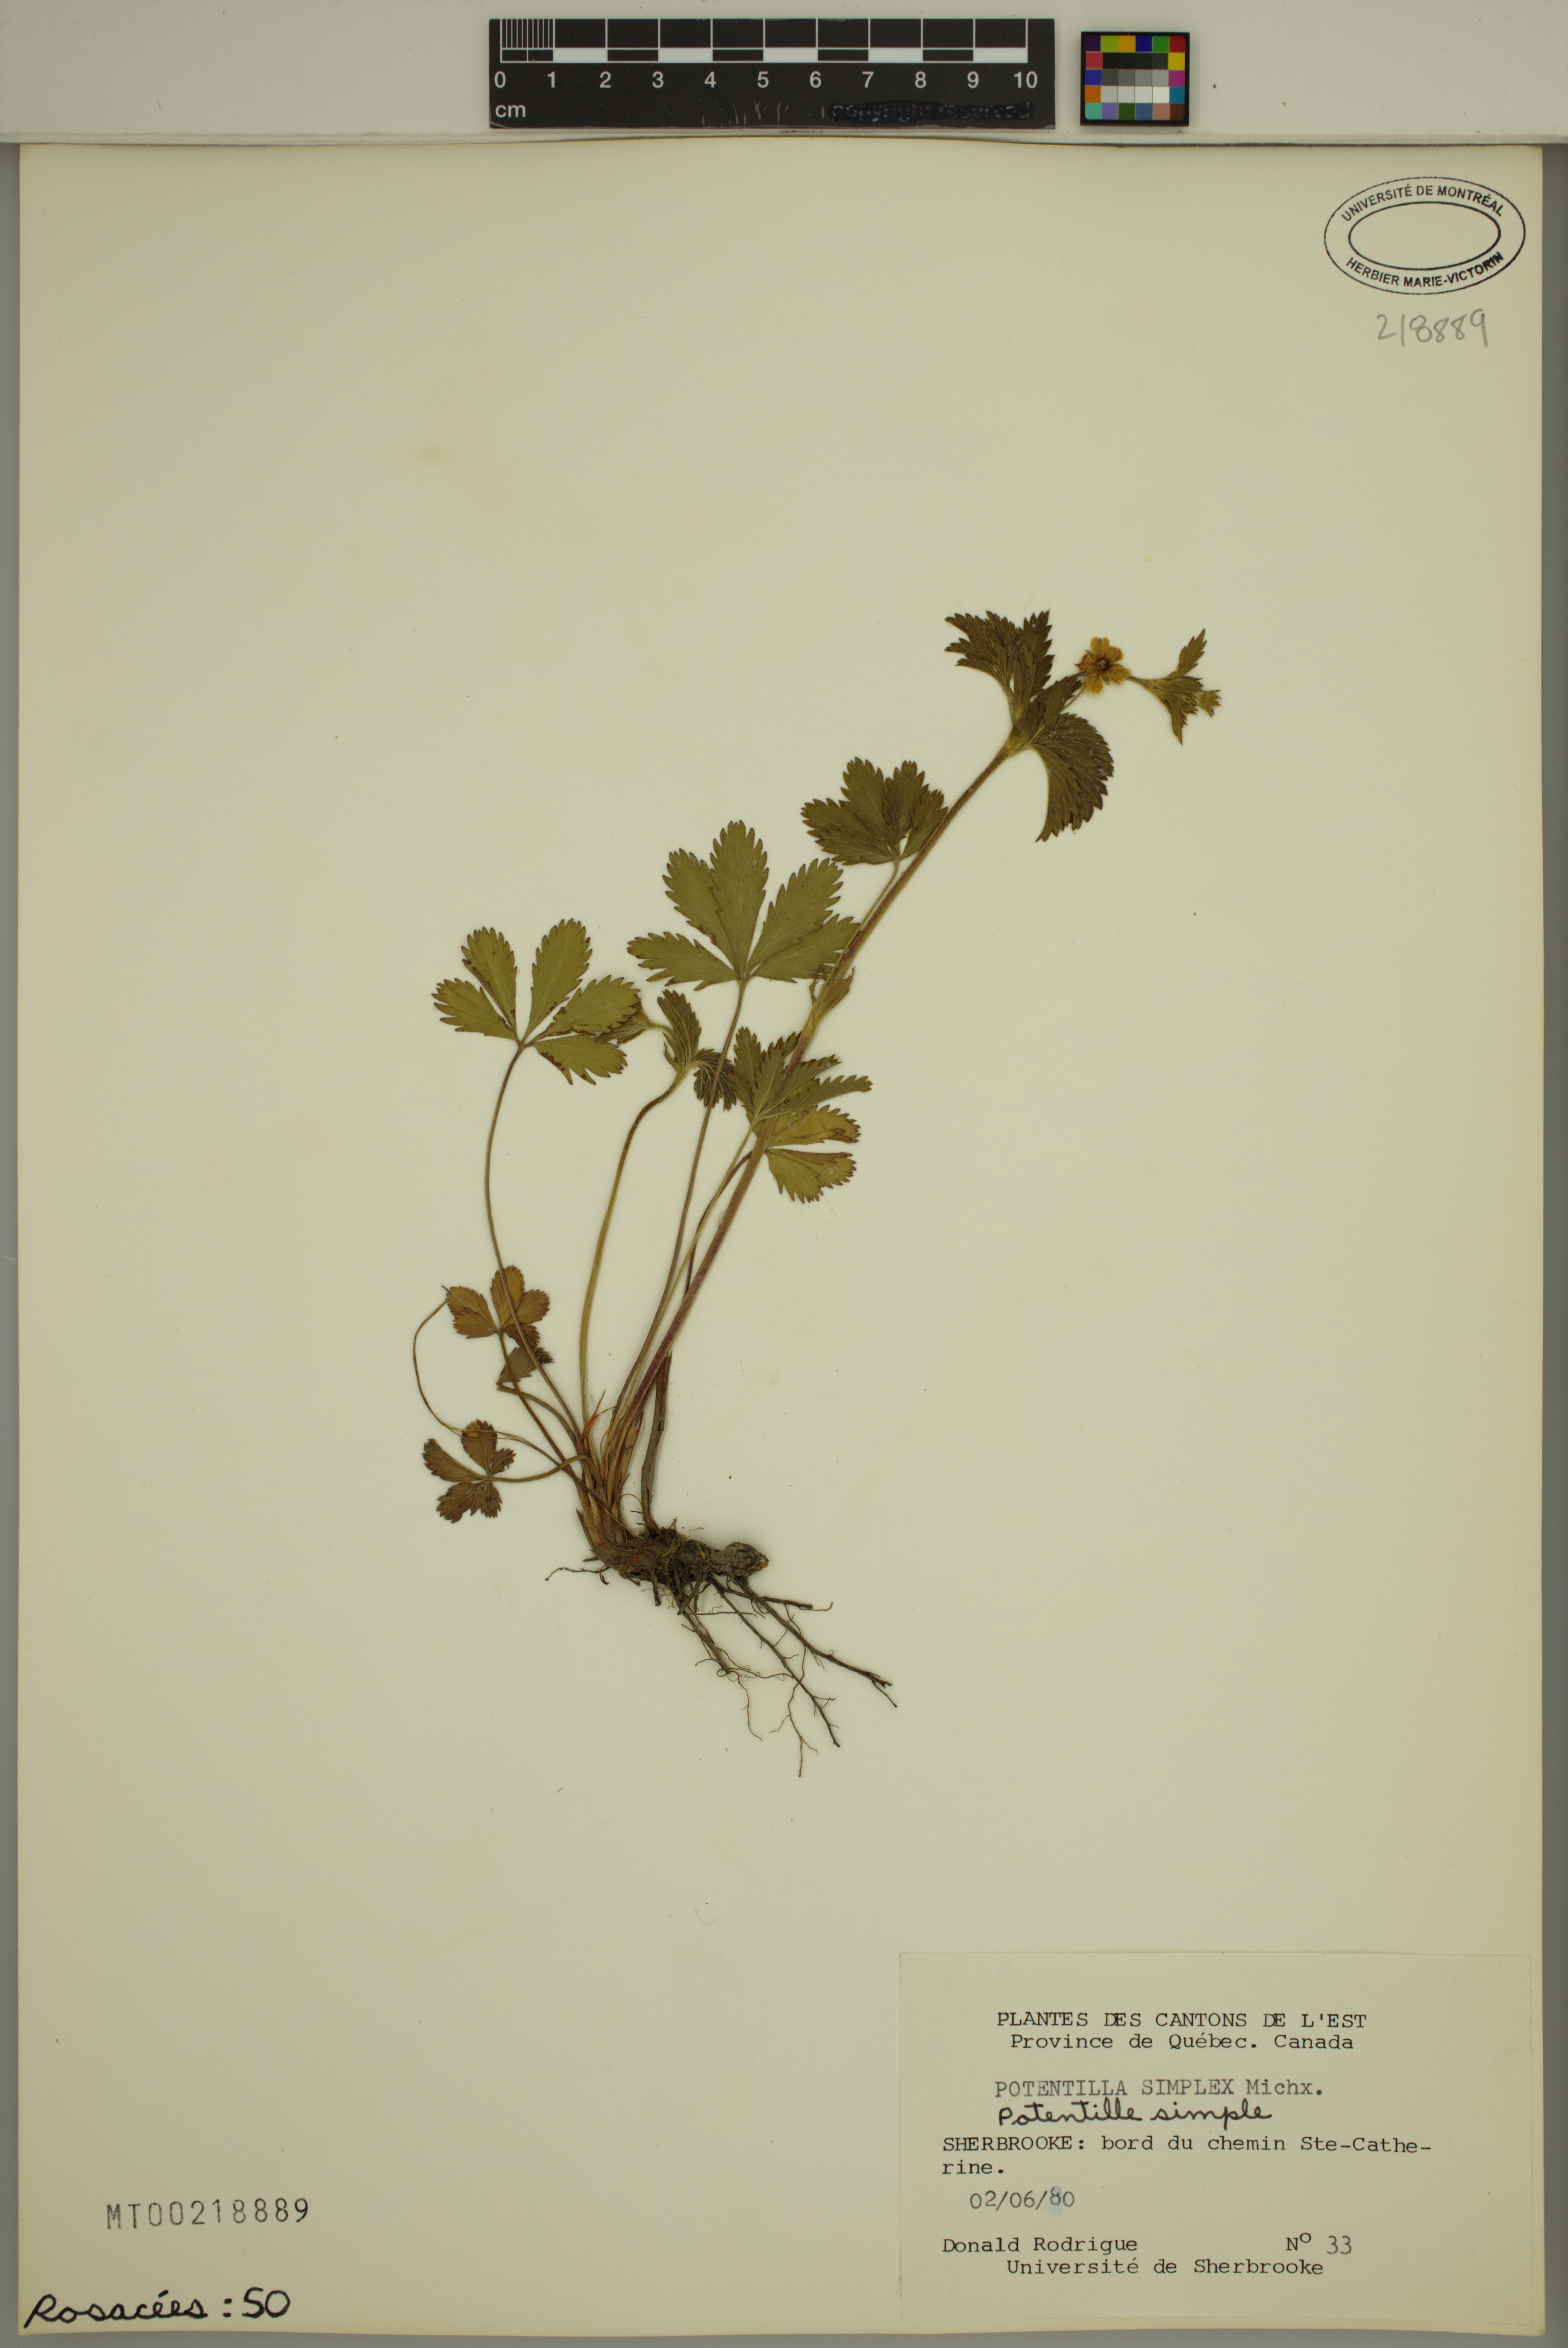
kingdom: Plantae
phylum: Tracheophyta
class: Magnoliopsida
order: Rosales
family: Rosaceae
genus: Potentilla
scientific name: Potentilla simplex
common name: Old field cinquefoil
